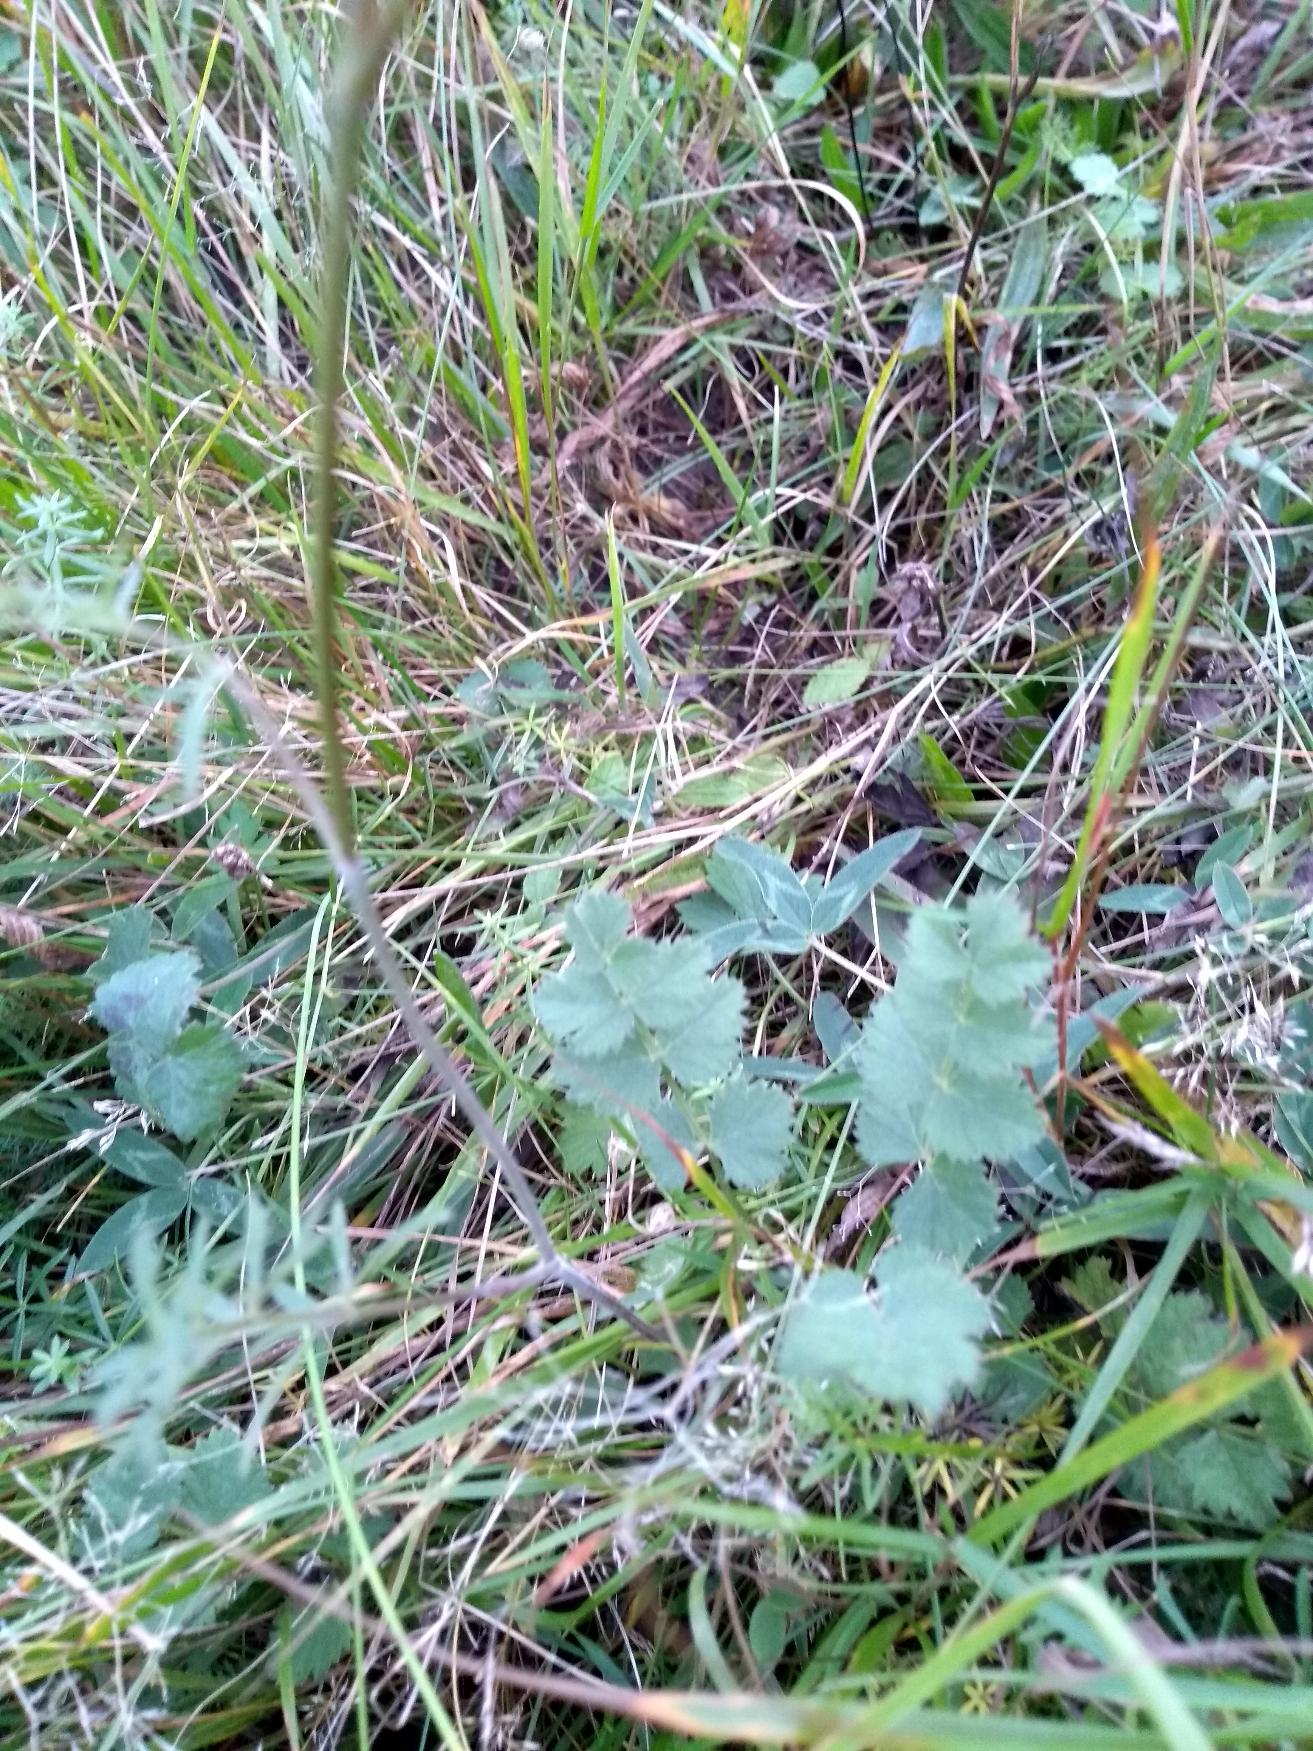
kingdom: Plantae
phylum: Tracheophyta
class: Magnoliopsida
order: Apiales
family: Apiaceae
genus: Pimpinella
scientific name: Pimpinella saxifraga
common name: Almindelig pimpinelle
